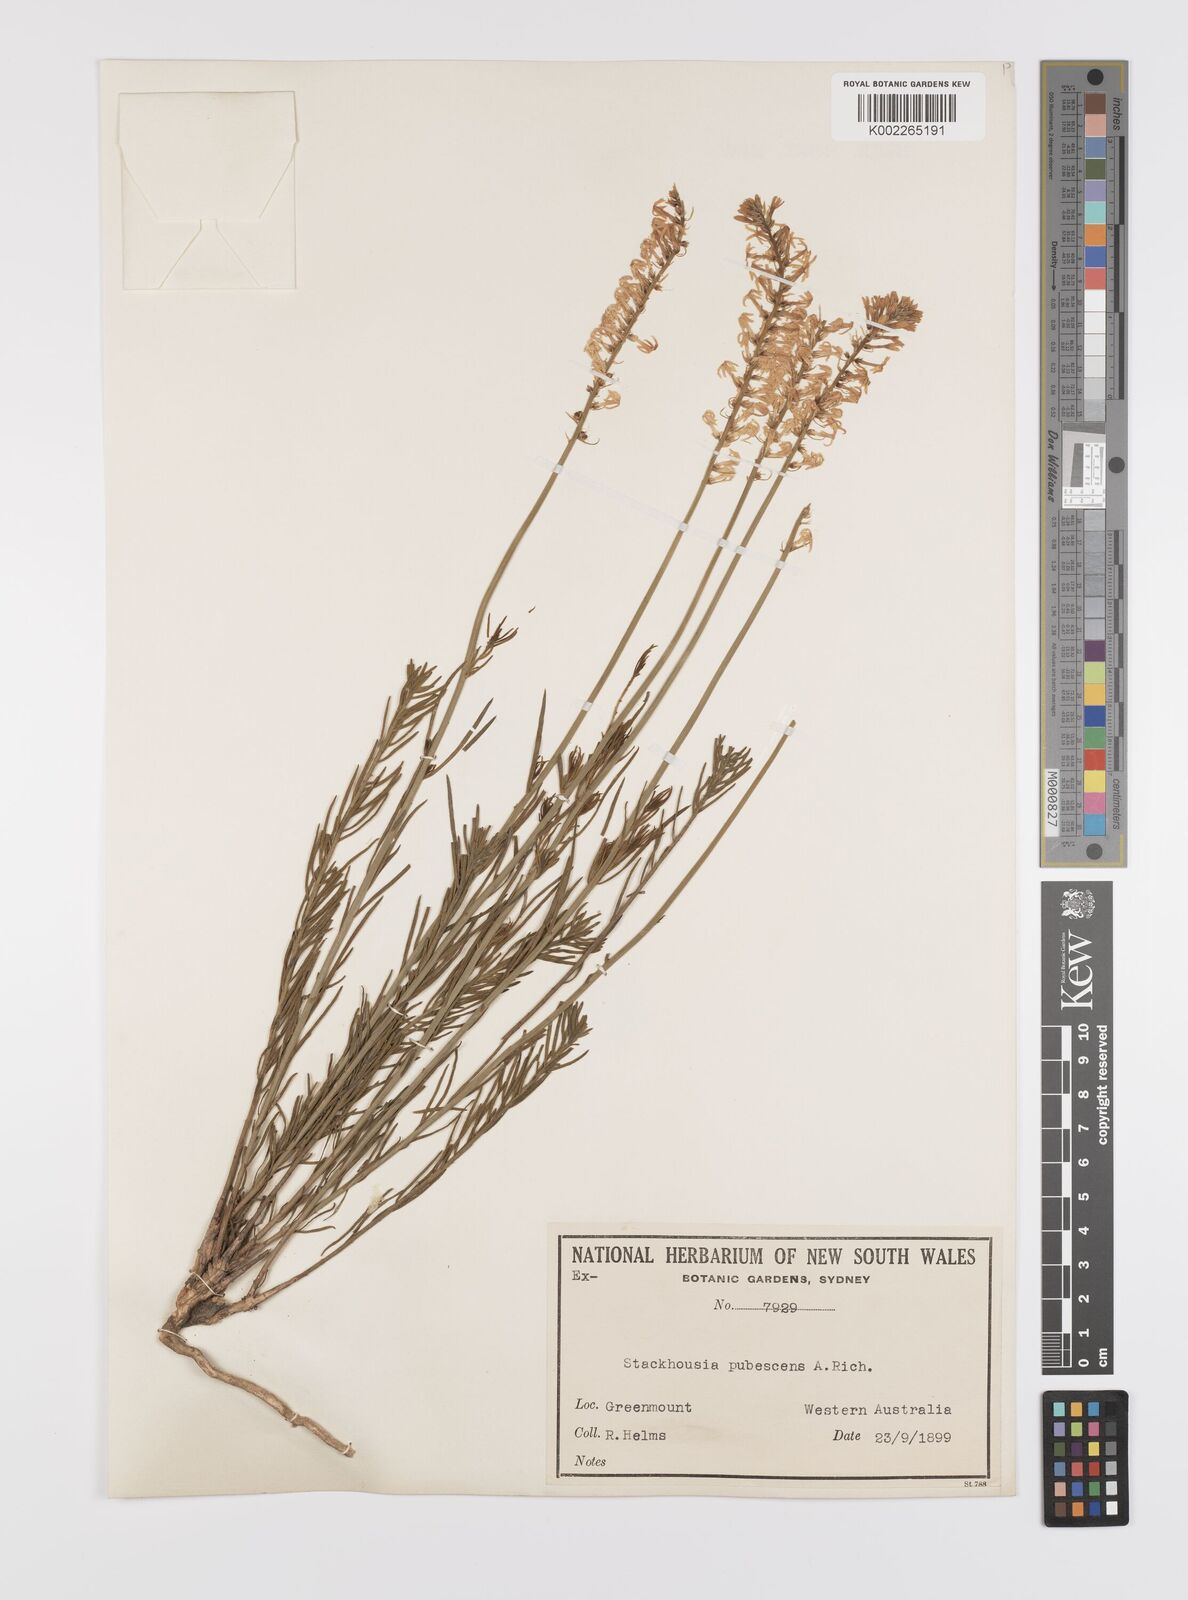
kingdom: Plantae
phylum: Tracheophyta
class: Magnoliopsida
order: Celastrales
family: Celastraceae
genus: Stackhousia
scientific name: Stackhousia monogyna
